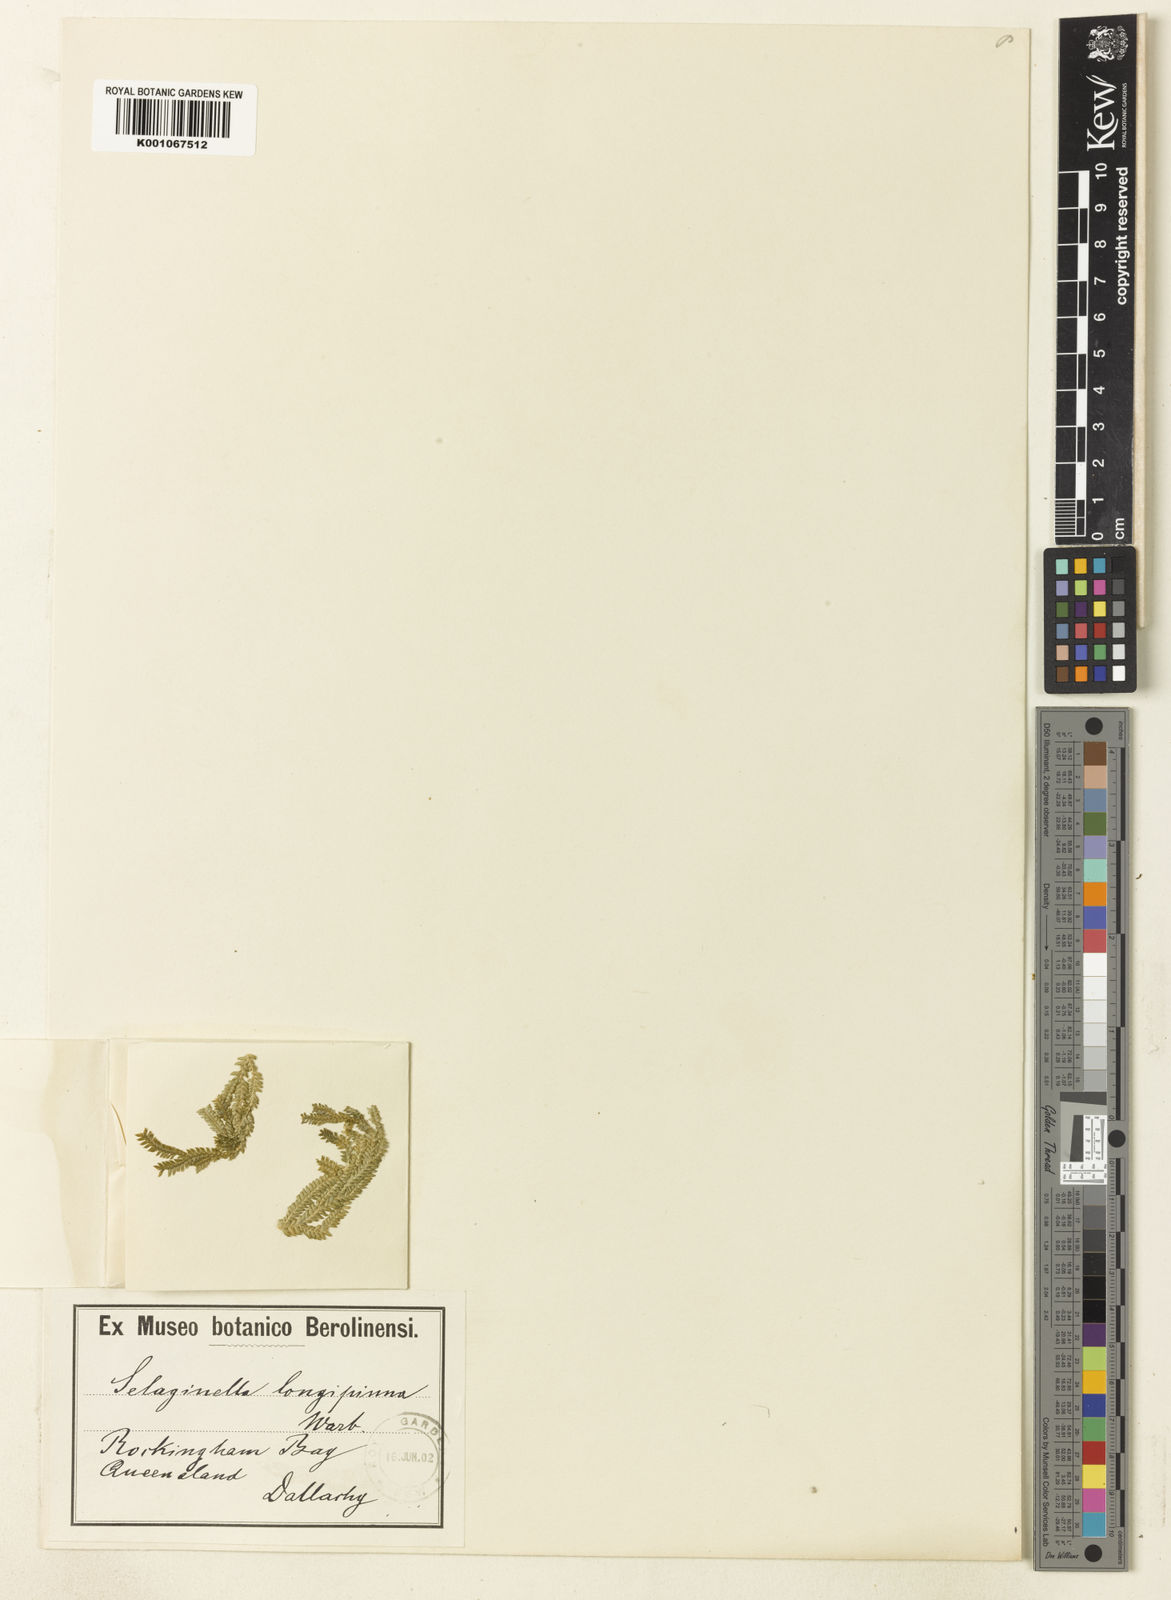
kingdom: Plantae
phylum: Tracheophyta
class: Lycopodiopsida
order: Selaginellales
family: Selaginellaceae
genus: Selaginella
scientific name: Selaginella longipinna
